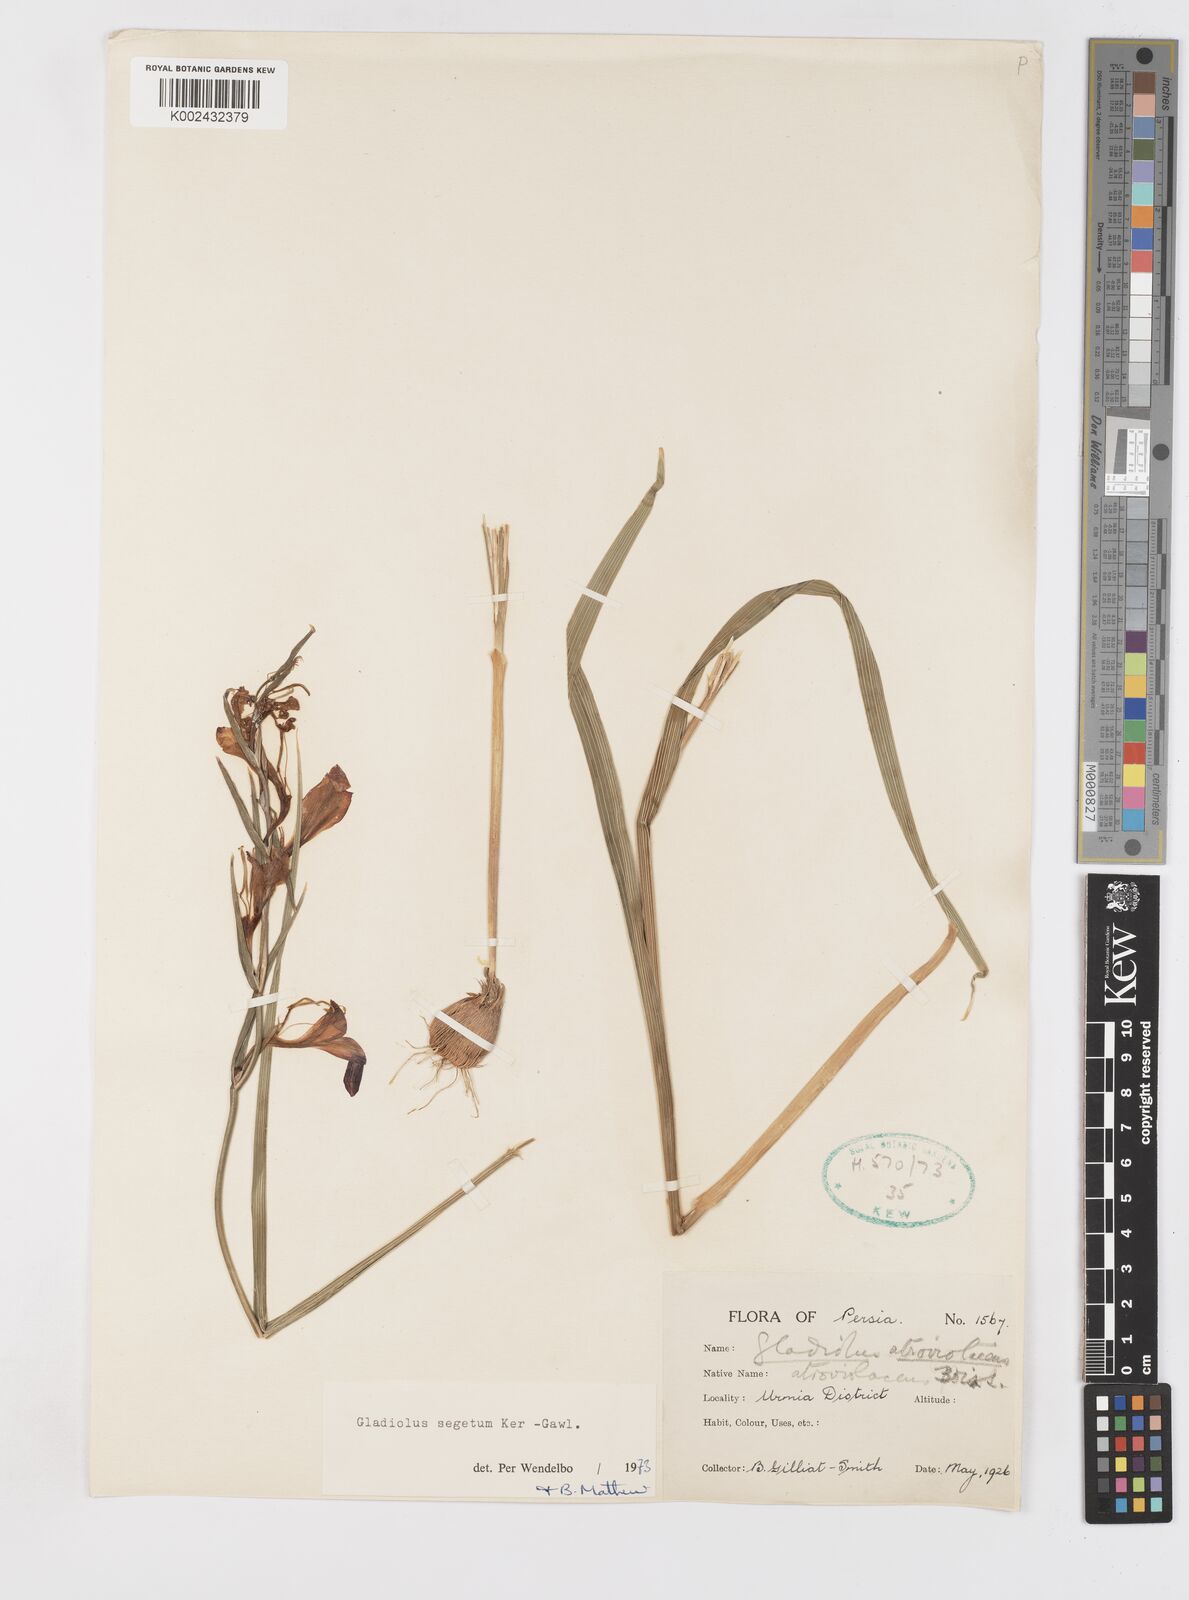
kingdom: Plantae
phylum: Tracheophyta
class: Liliopsida
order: Asparagales
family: Iridaceae
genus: Gladiolus
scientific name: Gladiolus italicus
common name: Field gladiolus
